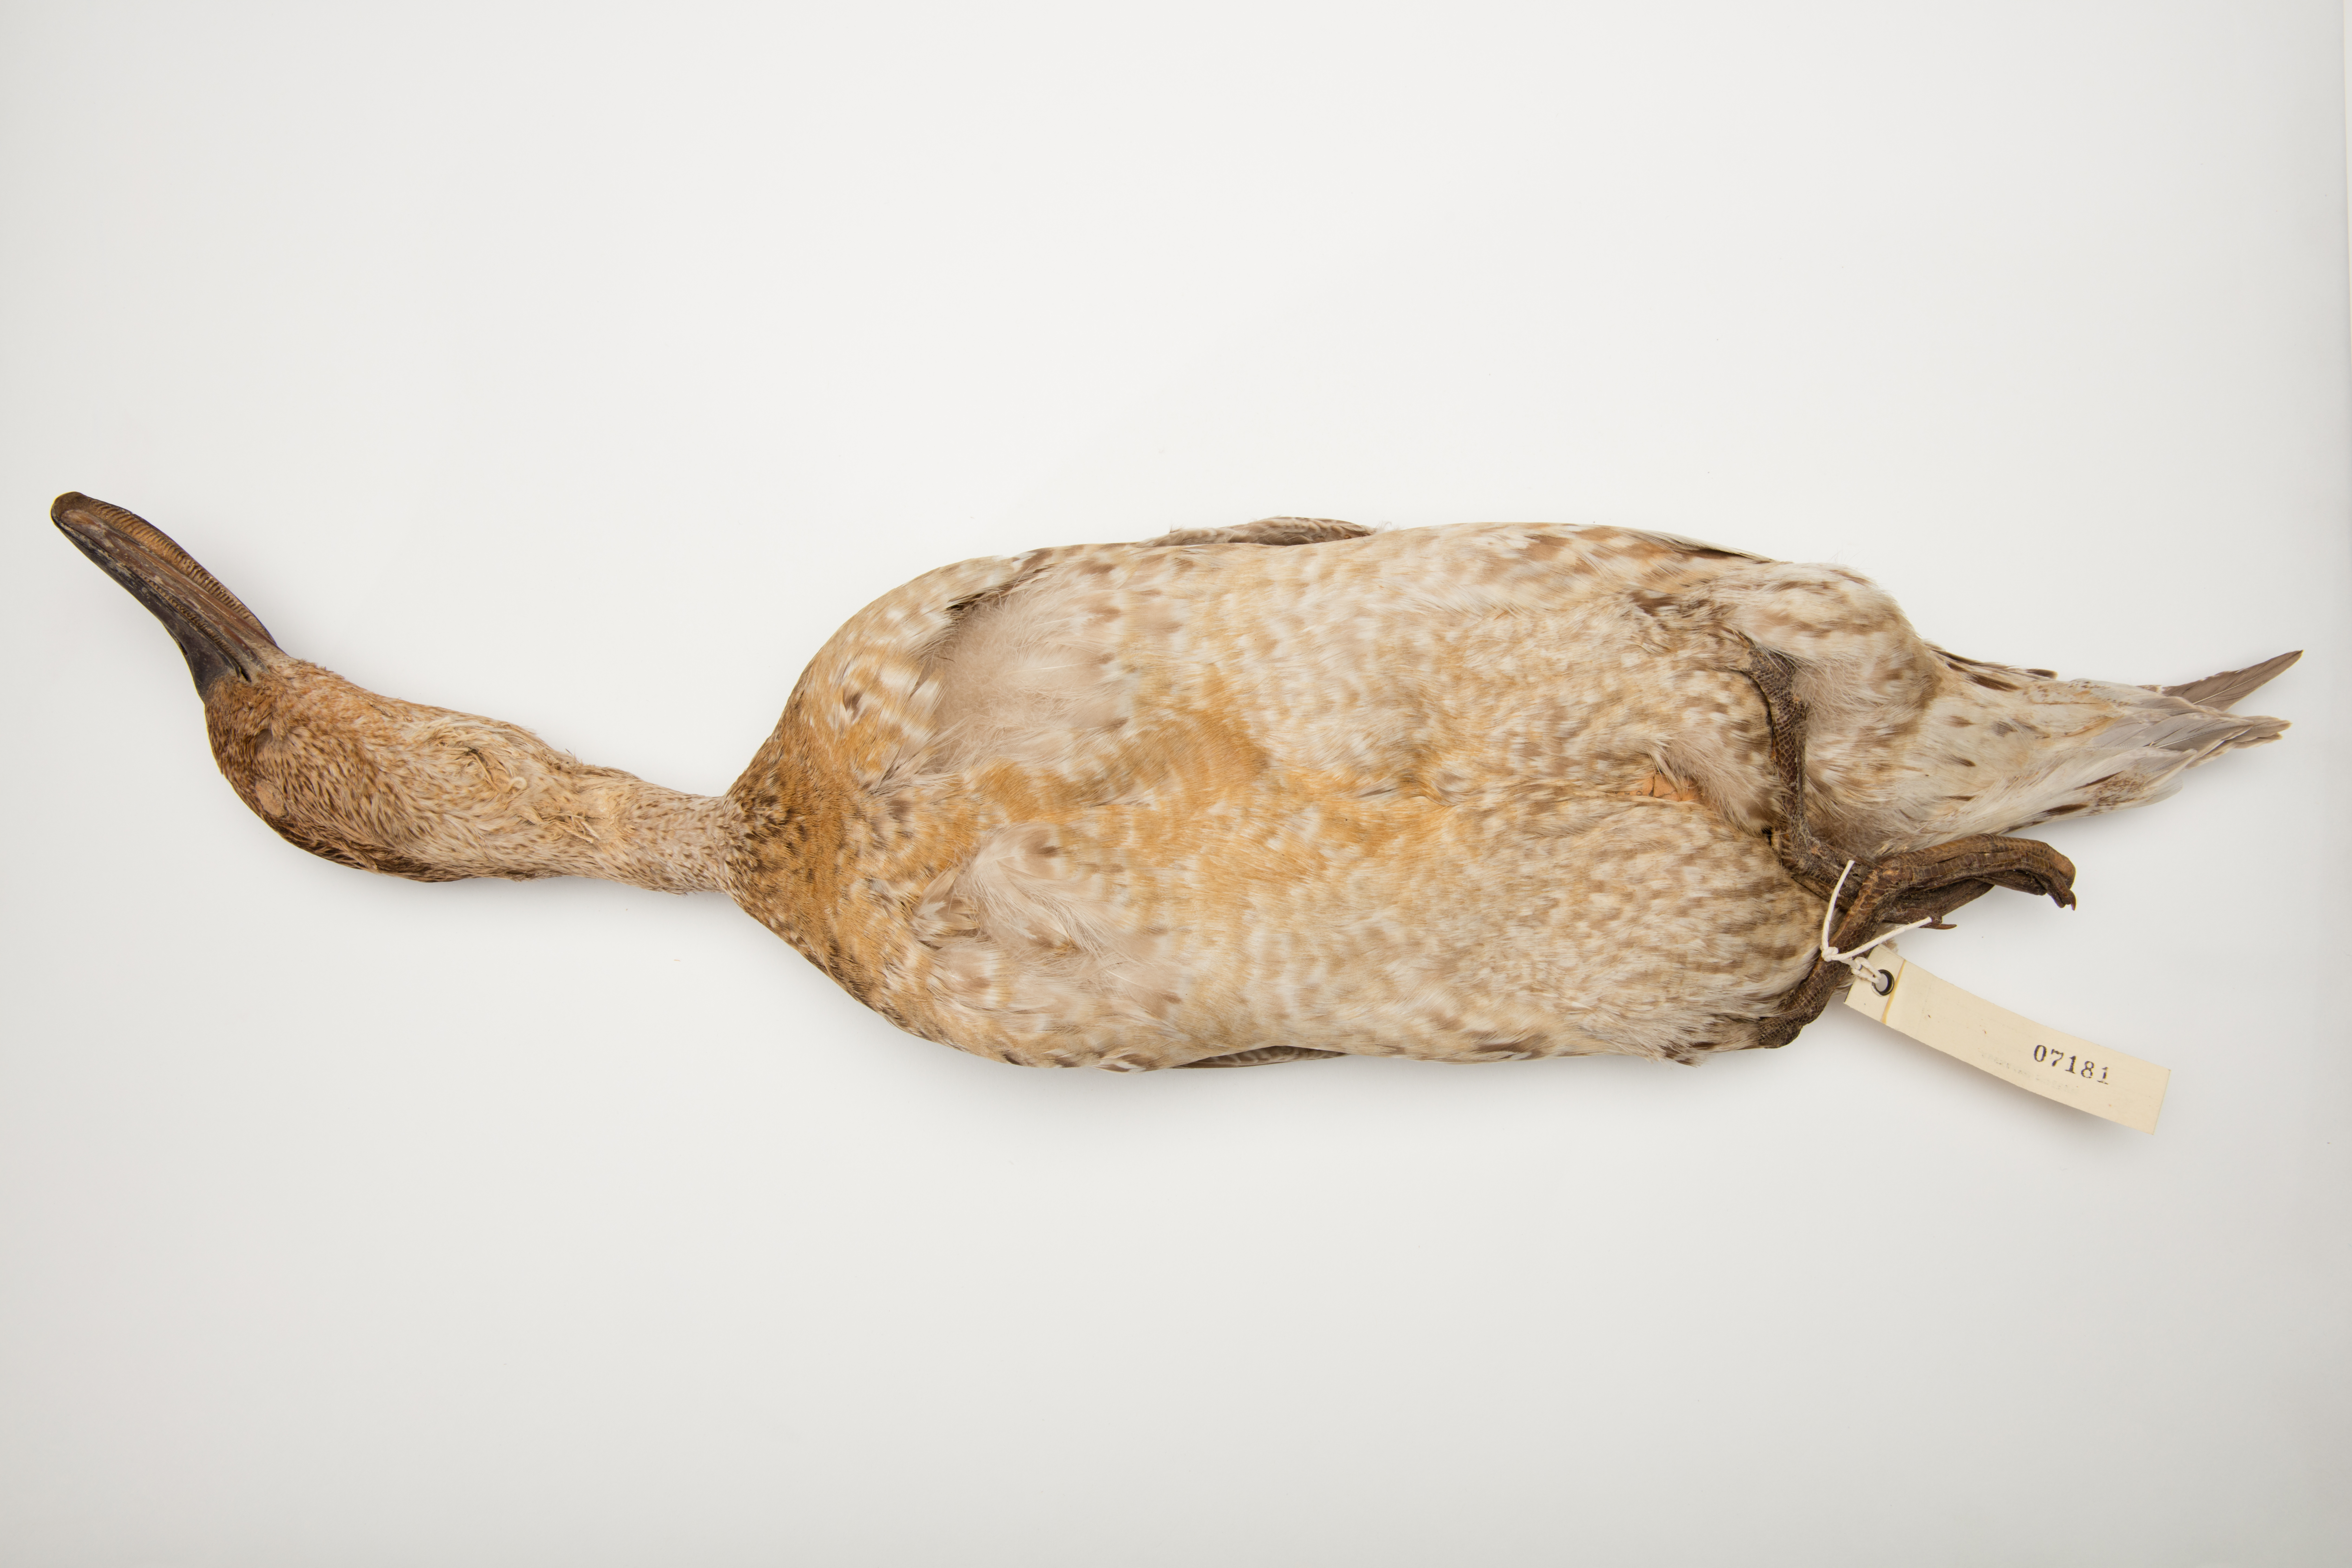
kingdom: Animalia
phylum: Chordata
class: Aves
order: Anseriformes
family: Anatidae
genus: Anas
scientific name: Anas acuta
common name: Northern pintail
